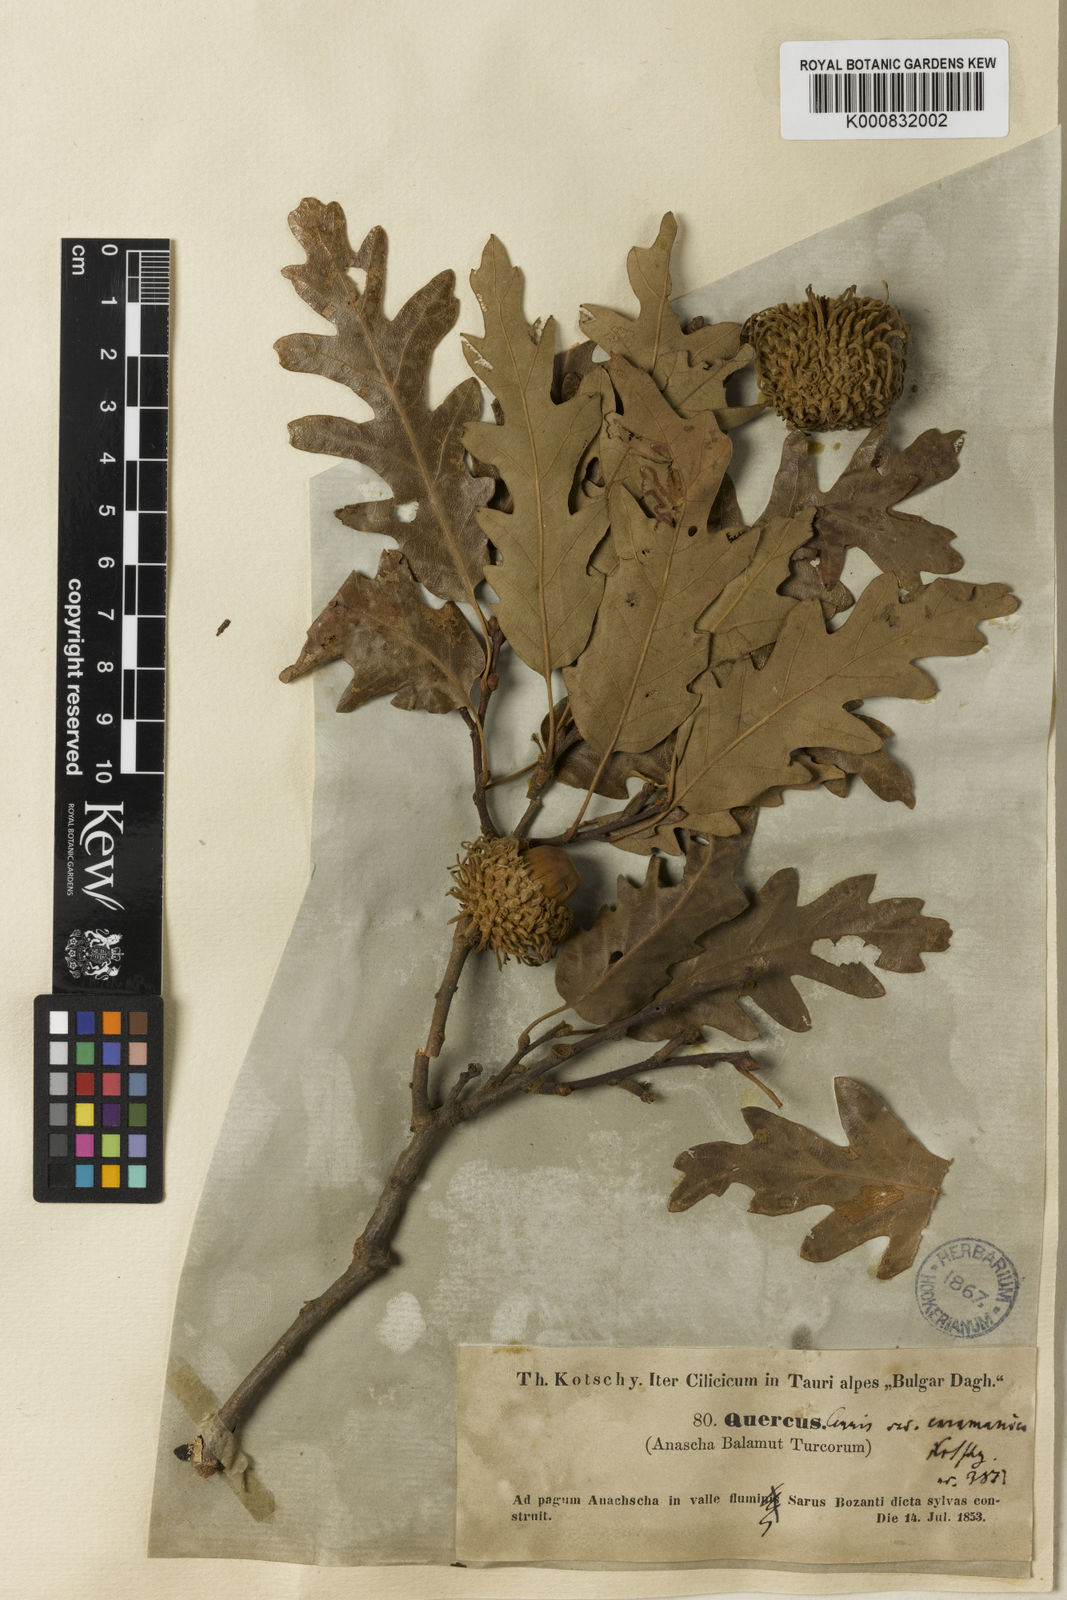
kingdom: Plantae
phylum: Tracheophyta
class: Magnoliopsida
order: Fagales
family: Fagaceae
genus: Quercus
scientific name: Quercus cerris
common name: Turkey oak
